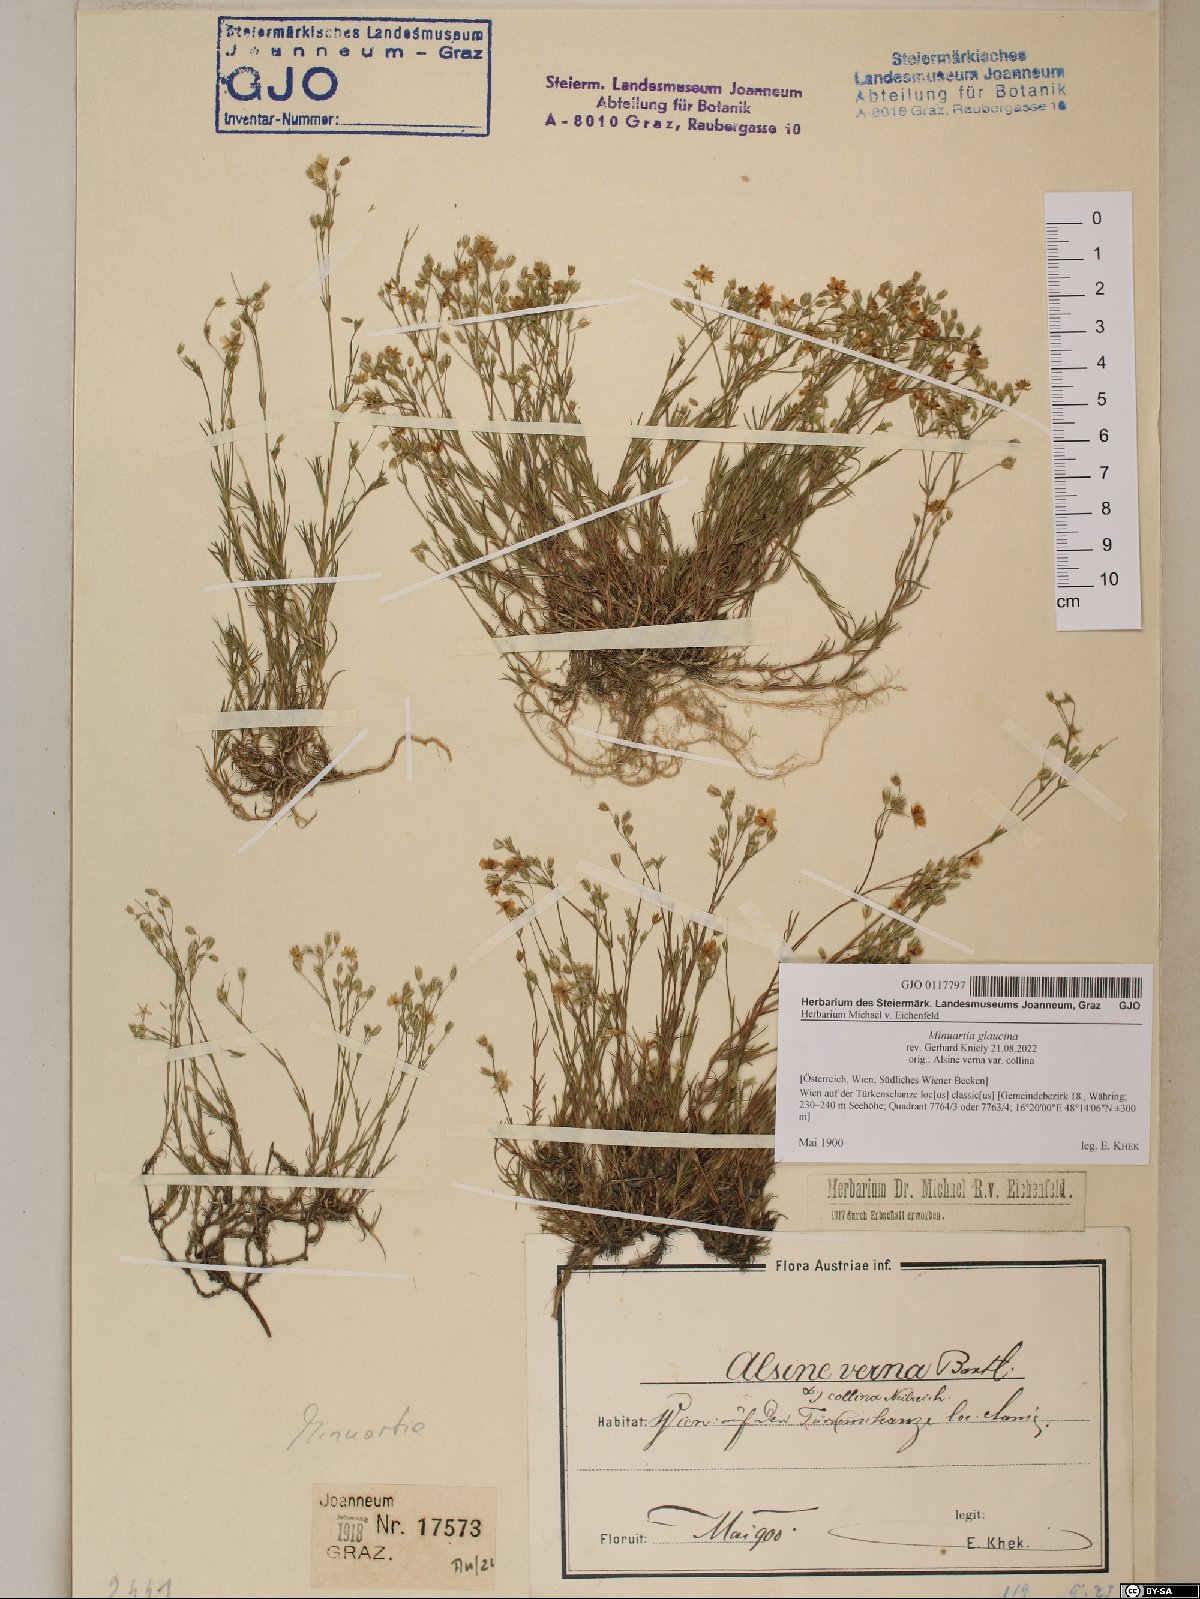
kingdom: Plantae
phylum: Tracheophyta
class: Magnoliopsida
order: Caryophyllales
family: Caryophyllaceae
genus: Sabulina
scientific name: Sabulina glaucina
